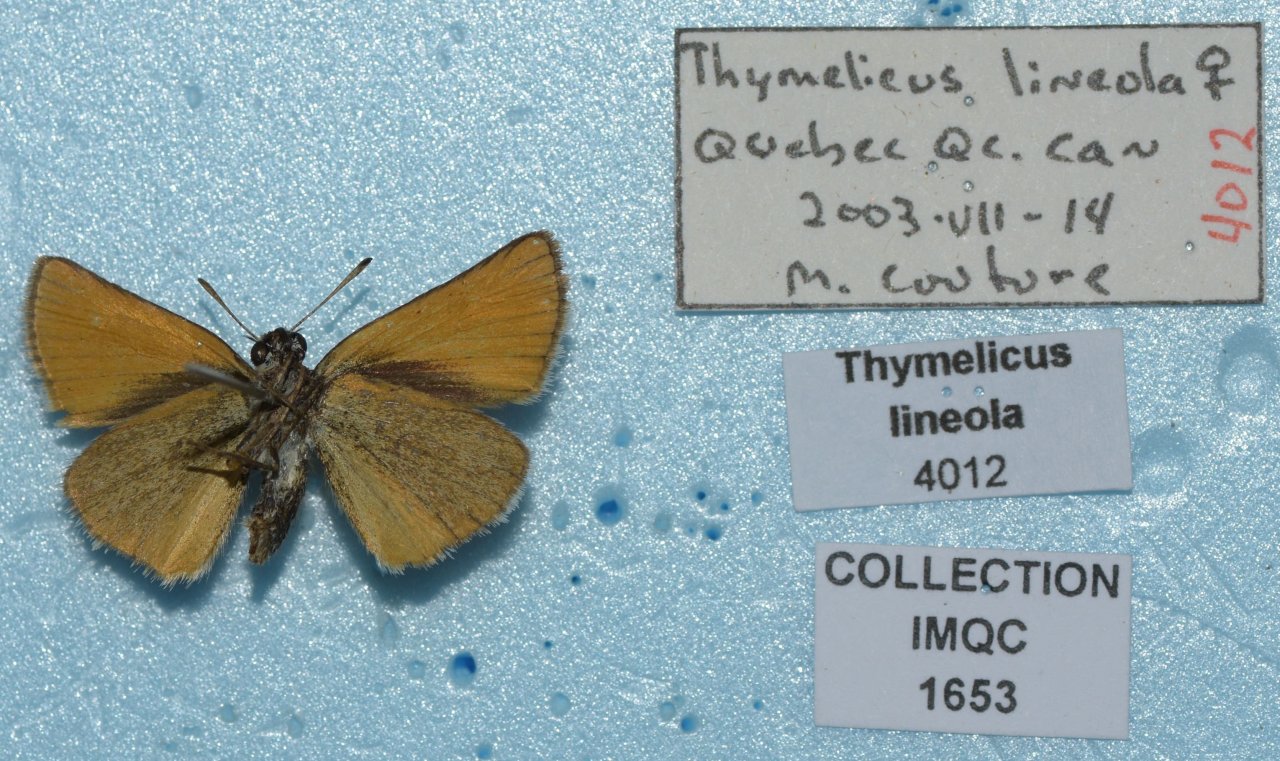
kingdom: Animalia
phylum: Arthropoda
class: Insecta
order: Lepidoptera
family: Hesperiidae
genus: Thymelicus
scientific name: Thymelicus lineola
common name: European Skipper
